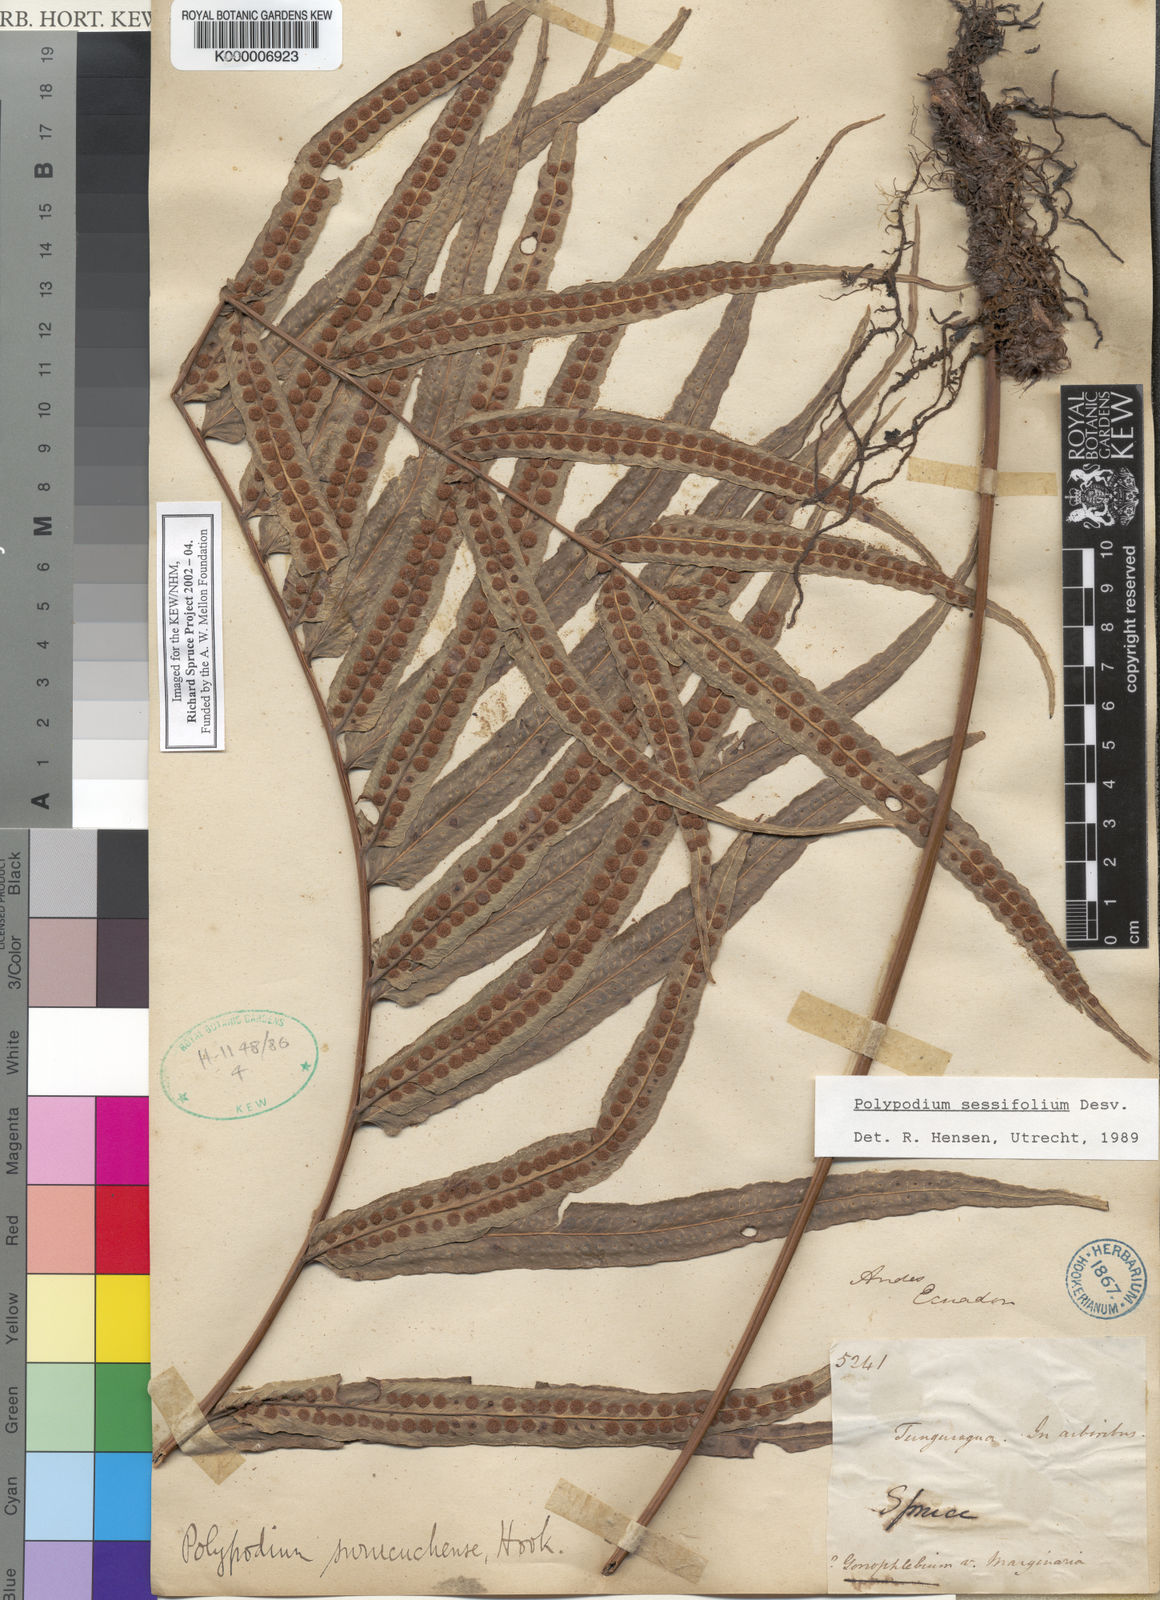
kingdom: Plantae
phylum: Tracheophyta
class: Polypodiopsida
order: Polypodiales
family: Polypodiaceae
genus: Polypodium
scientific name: Polypodium
